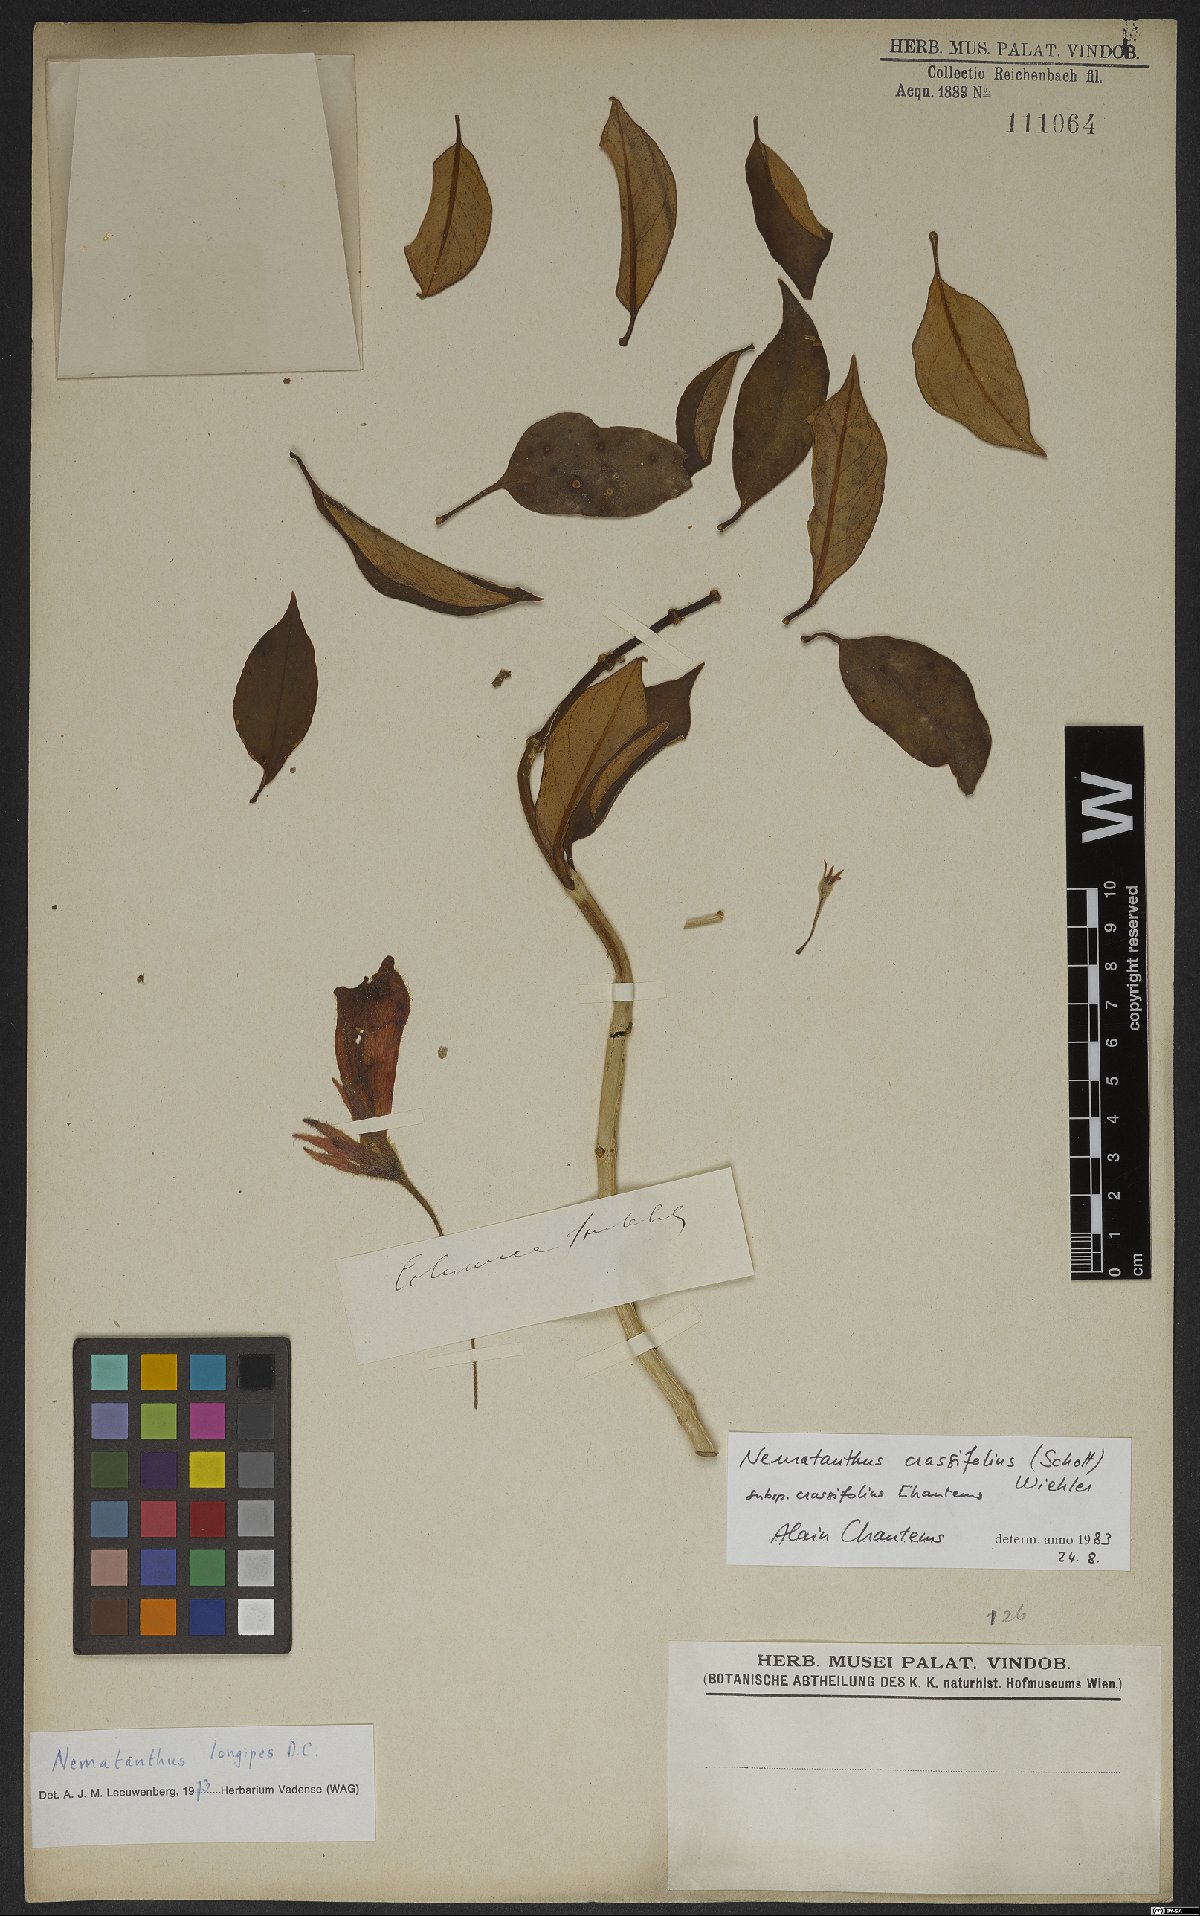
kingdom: Plantae
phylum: Tracheophyta
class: Magnoliopsida
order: Lamiales
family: Gesneriaceae
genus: Nematanthus
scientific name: Nematanthus crassifolius
